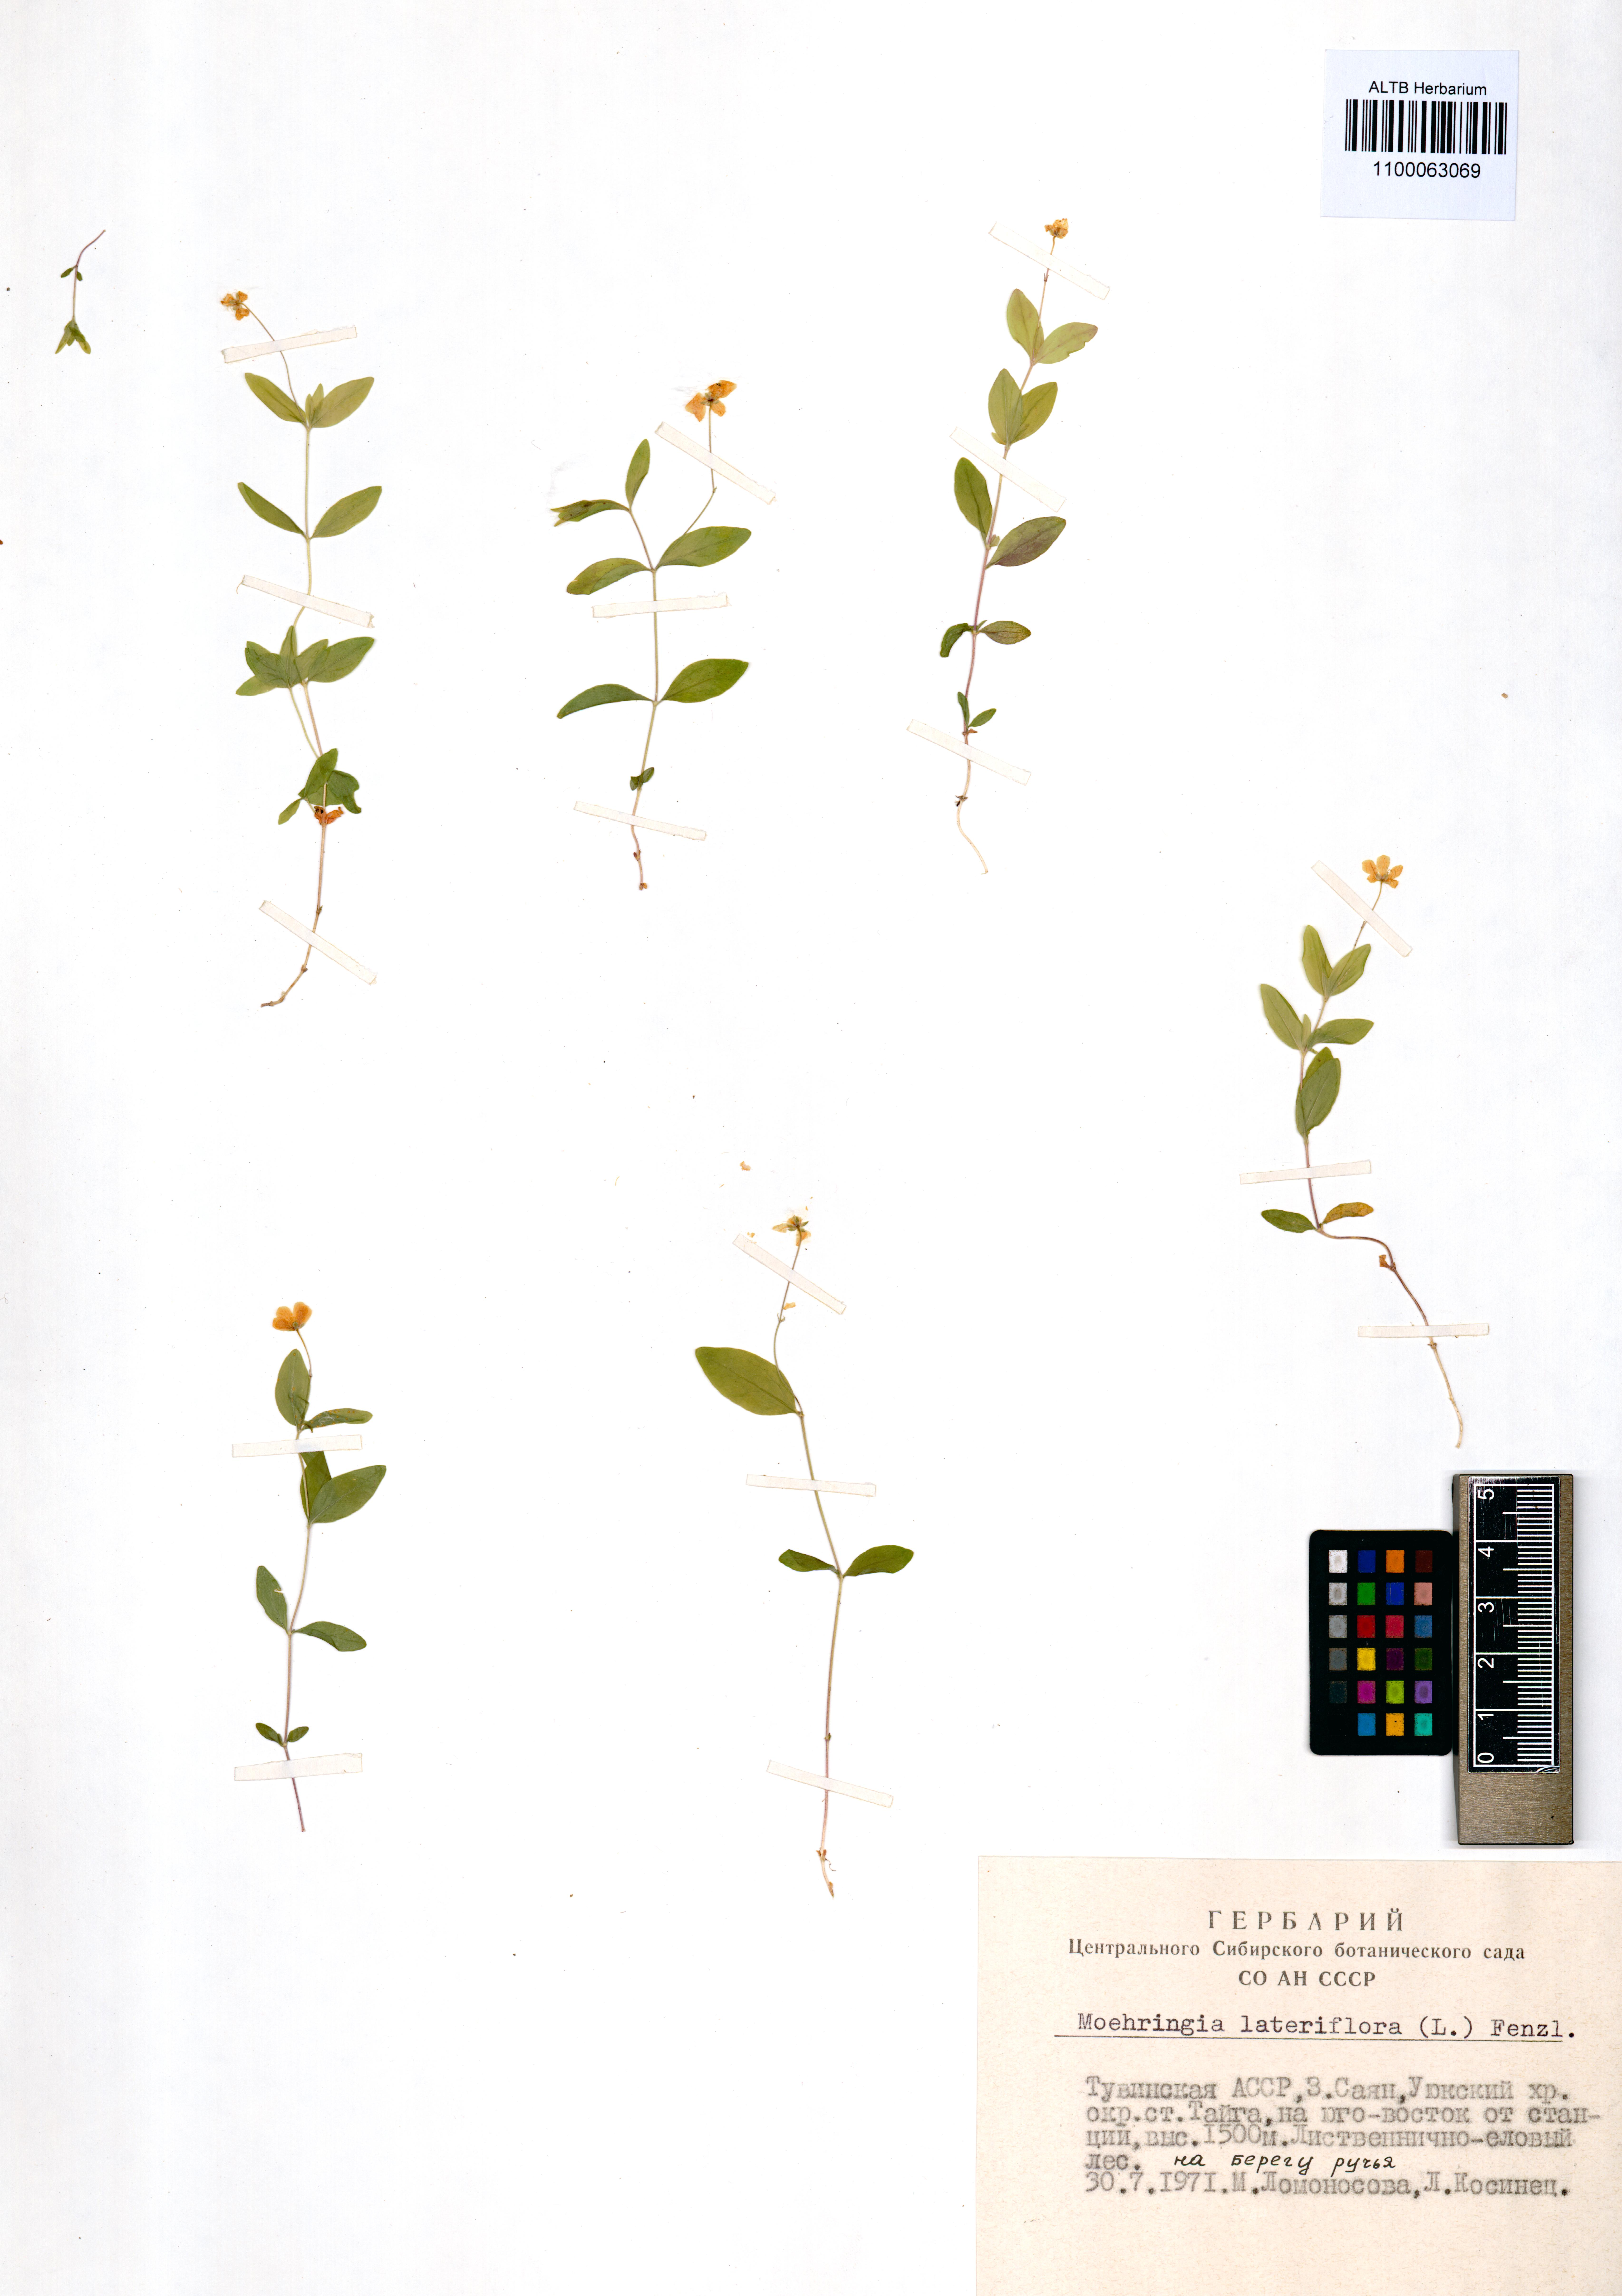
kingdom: Plantae
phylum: Tracheophyta
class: Magnoliopsida
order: Caryophyllales
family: Caryophyllaceae
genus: Moehringia
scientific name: Moehringia lateriflora
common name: Blunt-leaved sandwort
